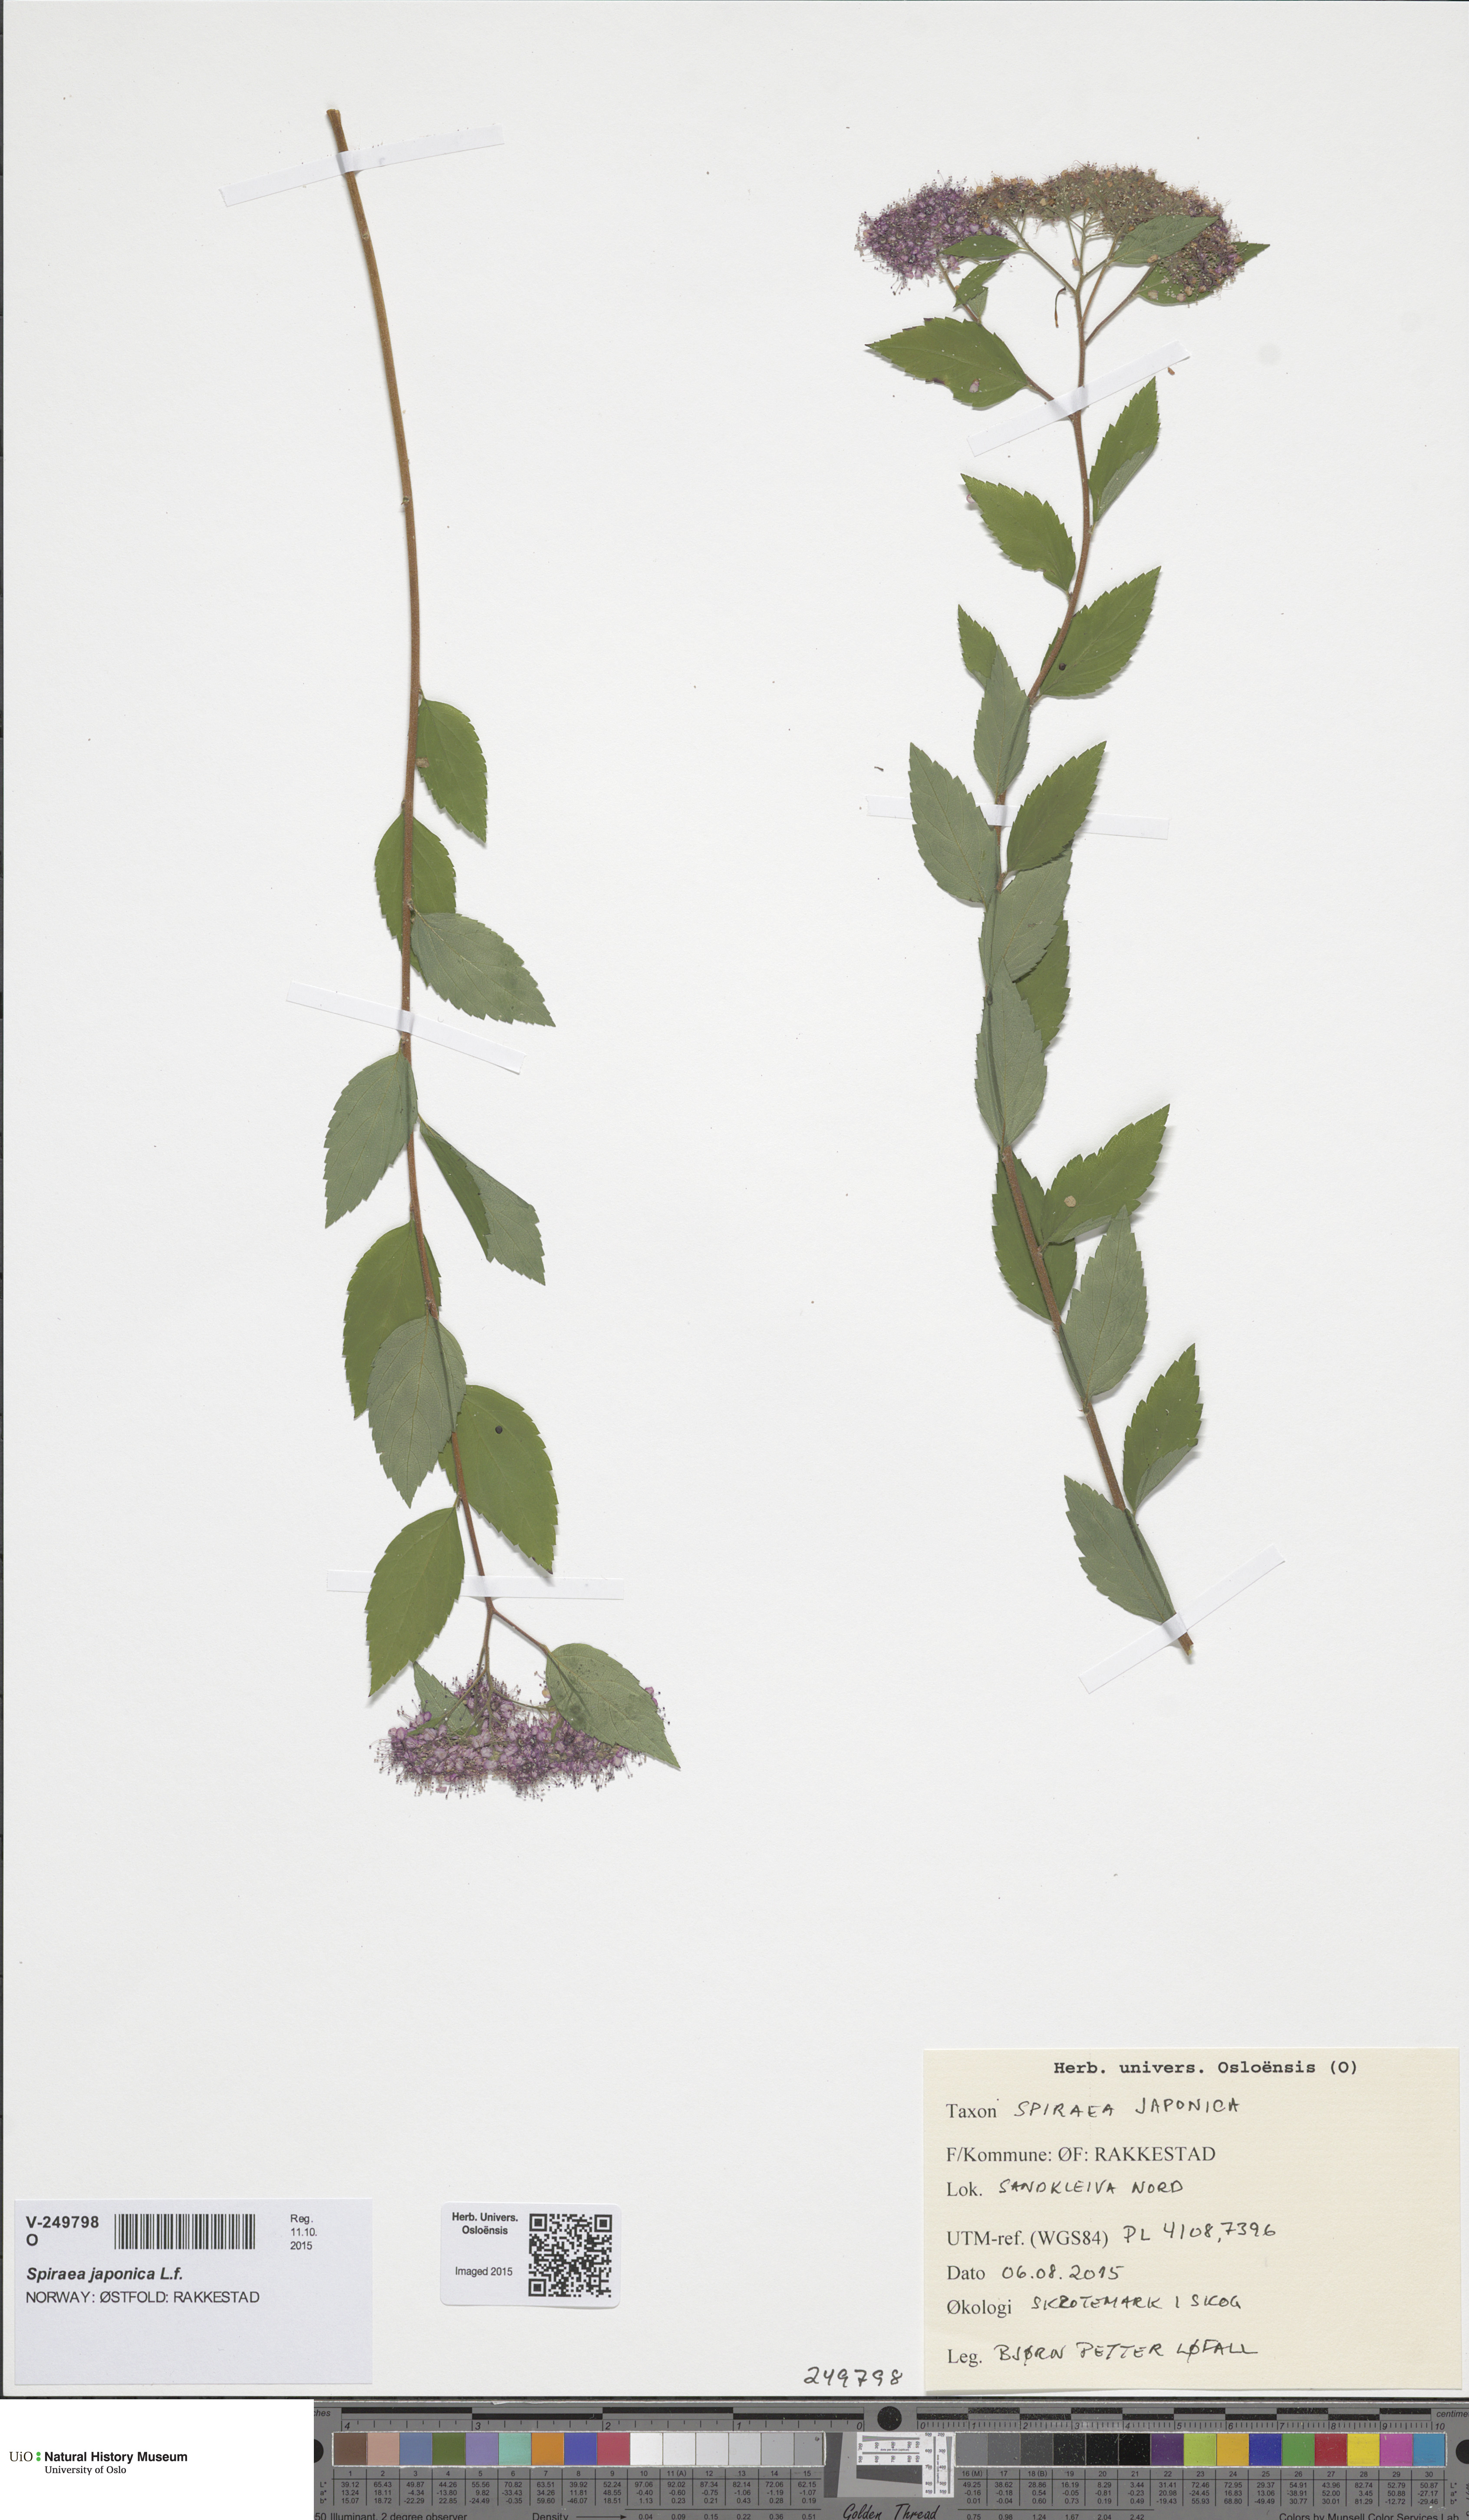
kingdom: Plantae
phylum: Tracheophyta
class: Magnoliopsida
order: Rosales
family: Rosaceae
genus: Spiraea
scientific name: Spiraea japonica
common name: Japanese spiraea
